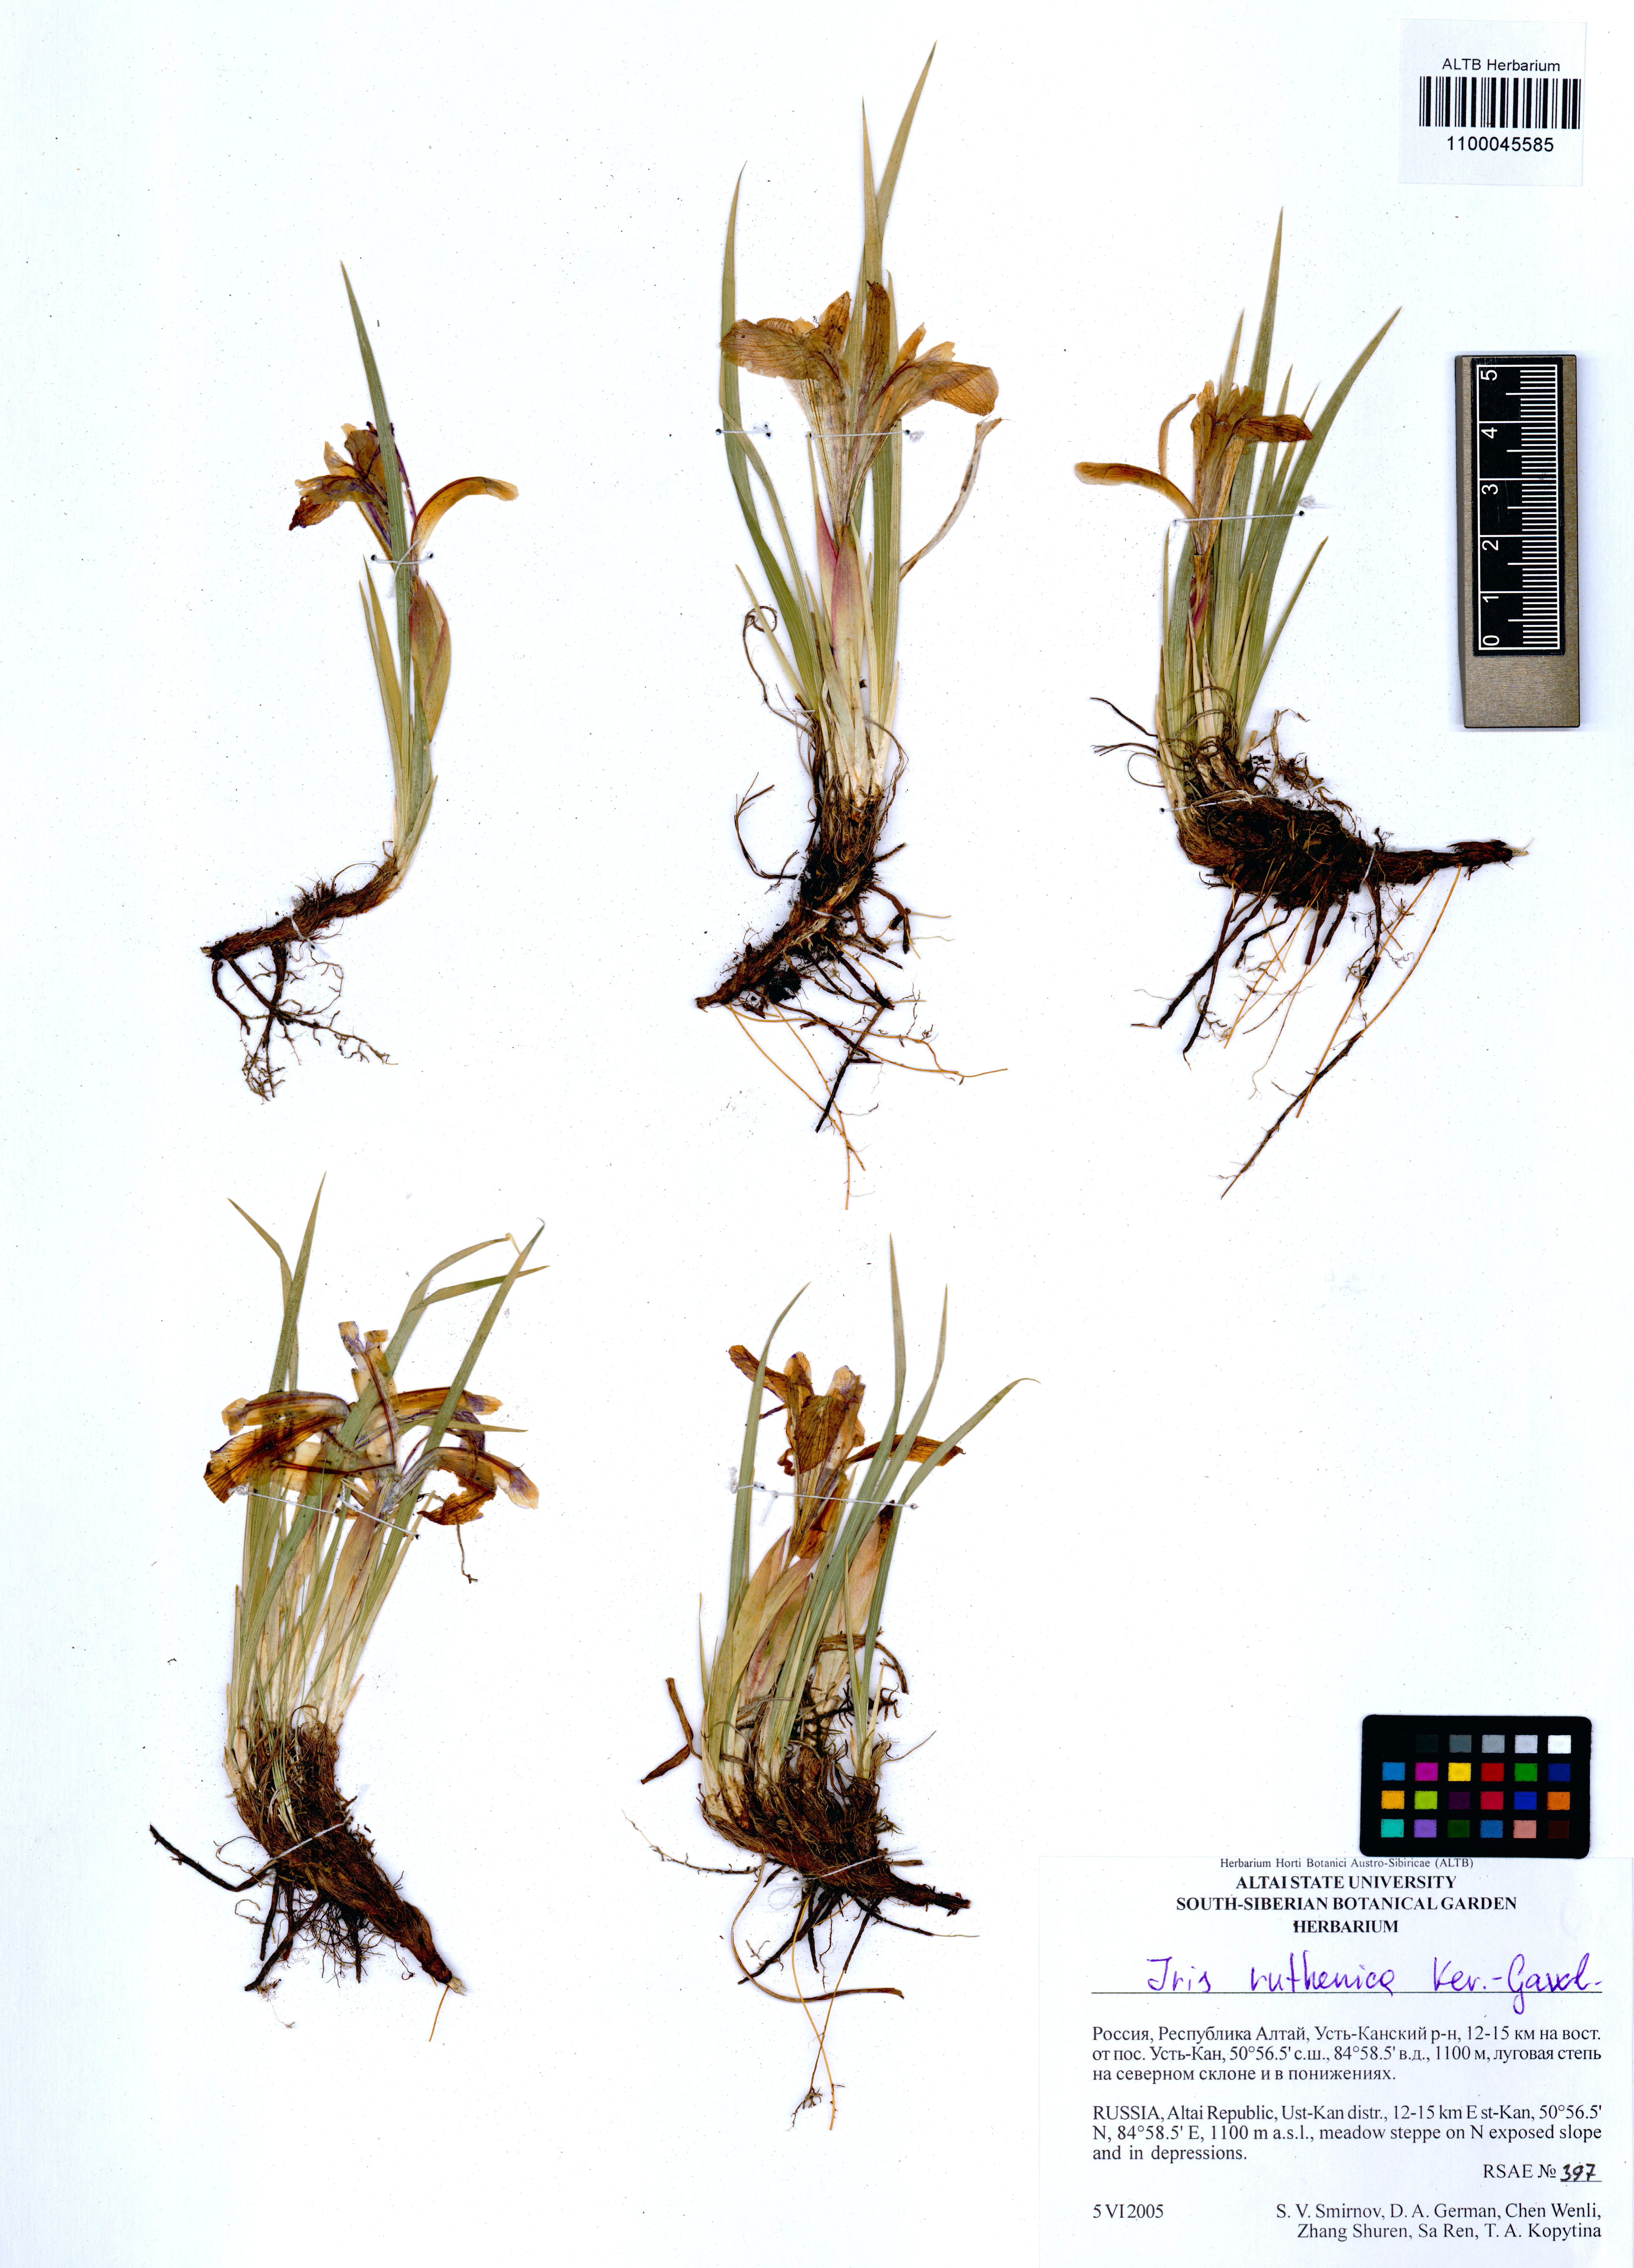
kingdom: Plantae
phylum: Tracheophyta
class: Liliopsida
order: Asparagales
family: Iridaceae
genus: Iris
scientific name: Iris ruthenica
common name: Purple-bract iris
